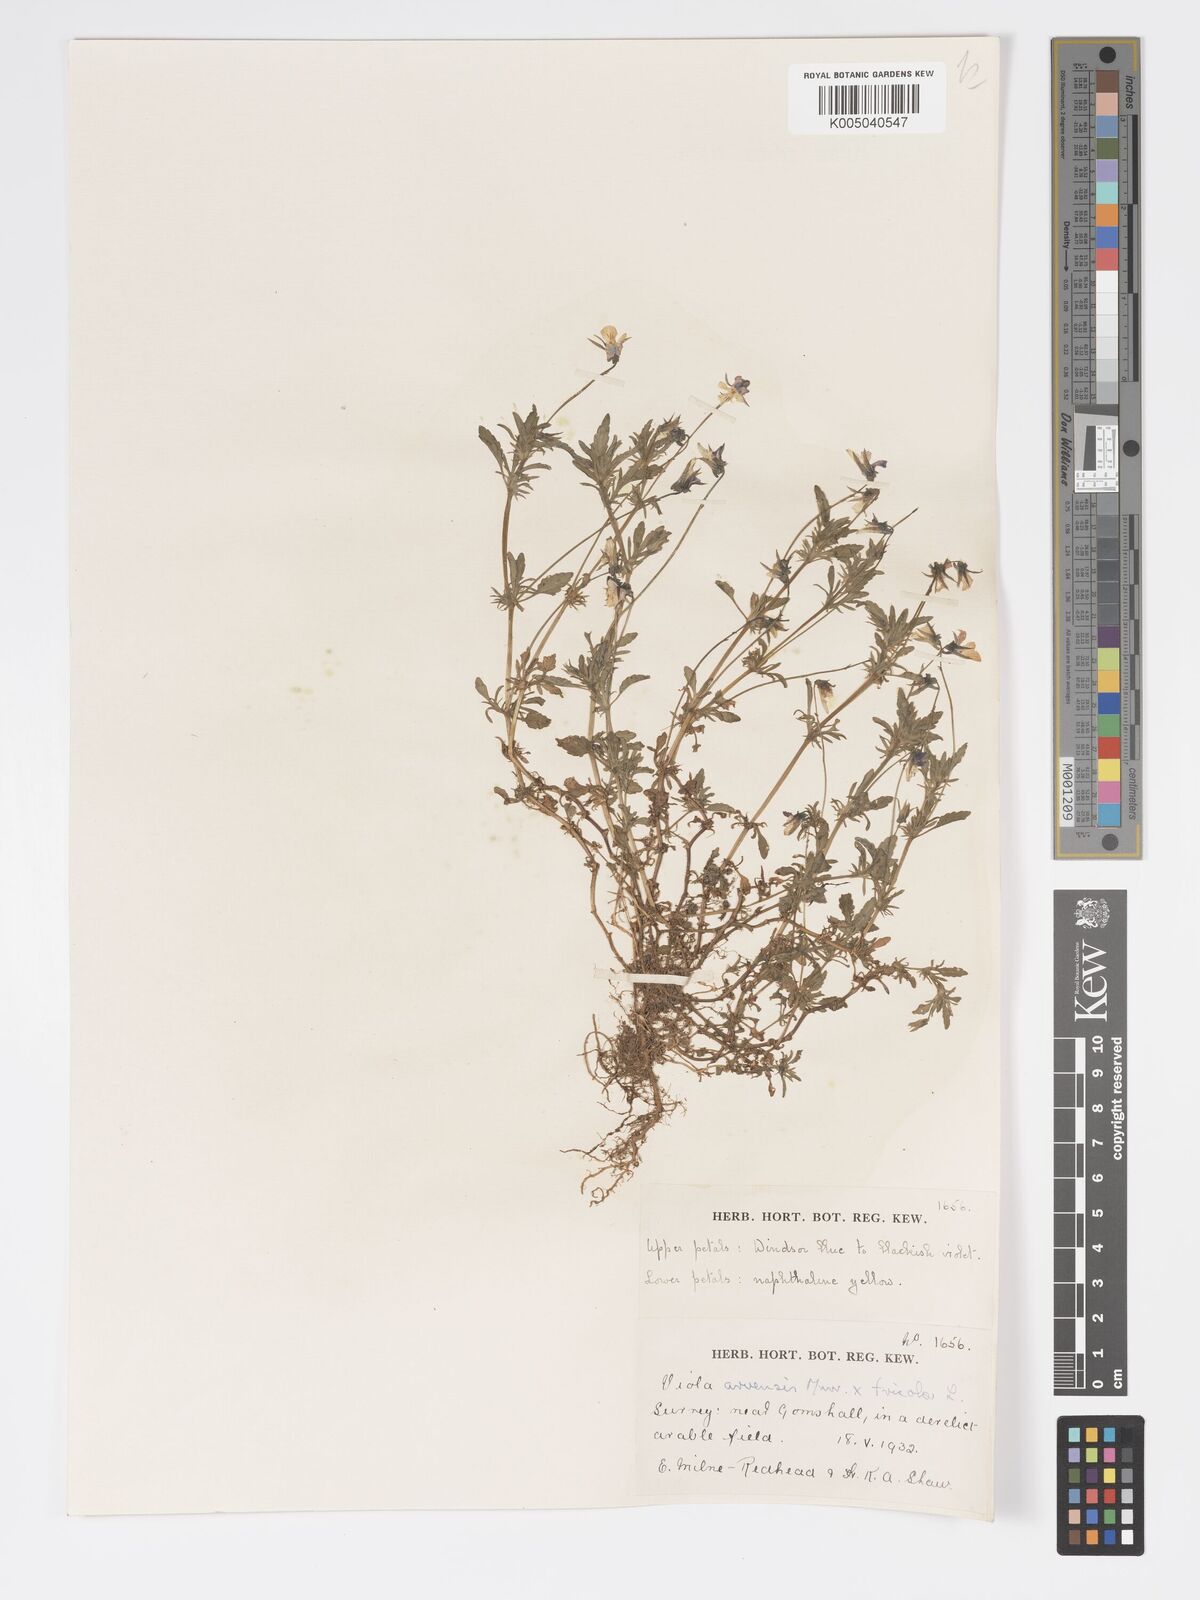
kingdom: Plantae
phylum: Tracheophyta
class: Magnoliopsida
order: Malpighiales
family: Violaceae
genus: Viola
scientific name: Viola
